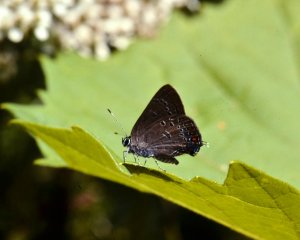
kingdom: Animalia
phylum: Arthropoda
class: Insecta
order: Lepidoptera
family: Lycaenidae
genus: Satyrium
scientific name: Satyrium edwardsii
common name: Edwards' Hairstreak
